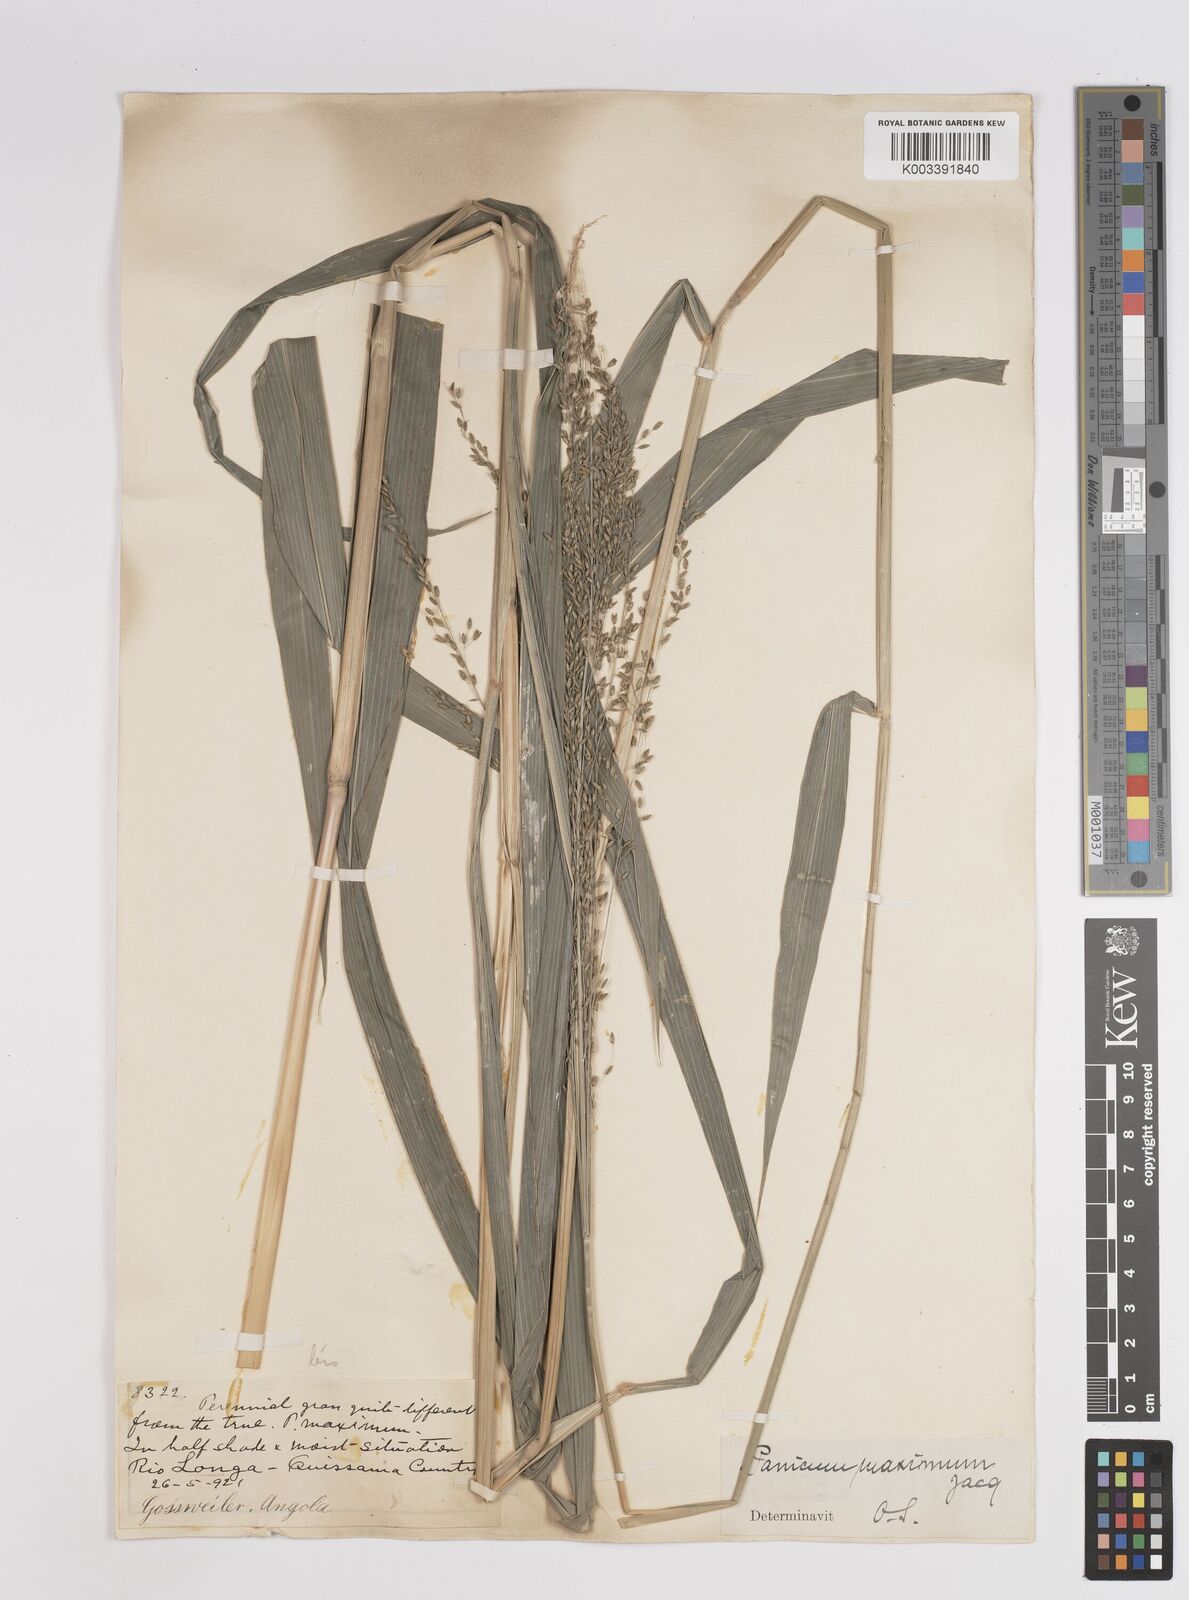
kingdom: Plantae
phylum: Tracheophyta
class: Liliopsida
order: Poales
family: Poaceae
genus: Megathyrsus
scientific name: Megathyrsus maximus
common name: Guineagrass
